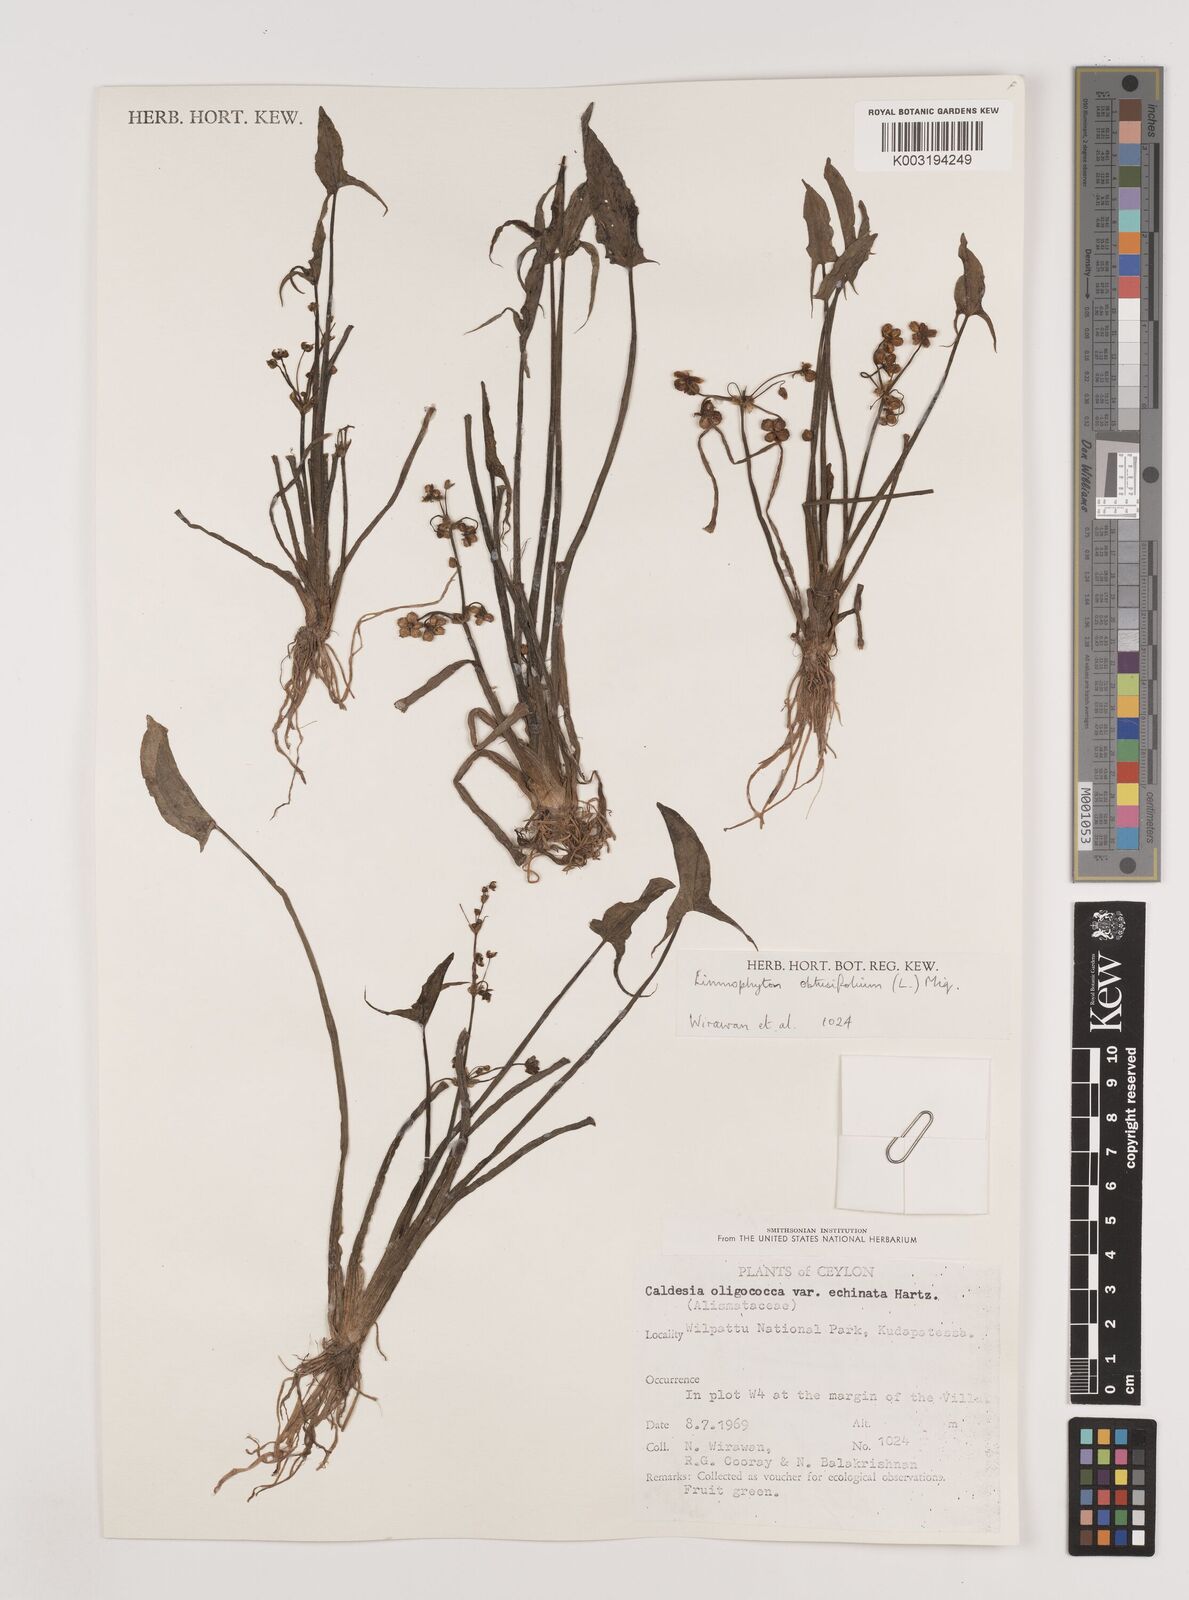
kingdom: Plantae
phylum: Tracheophyta
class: Liliopsida
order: Alismatales
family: Alismataceae
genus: Limnophyton
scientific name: Limnophyton obtusifolium
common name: Arrow head
